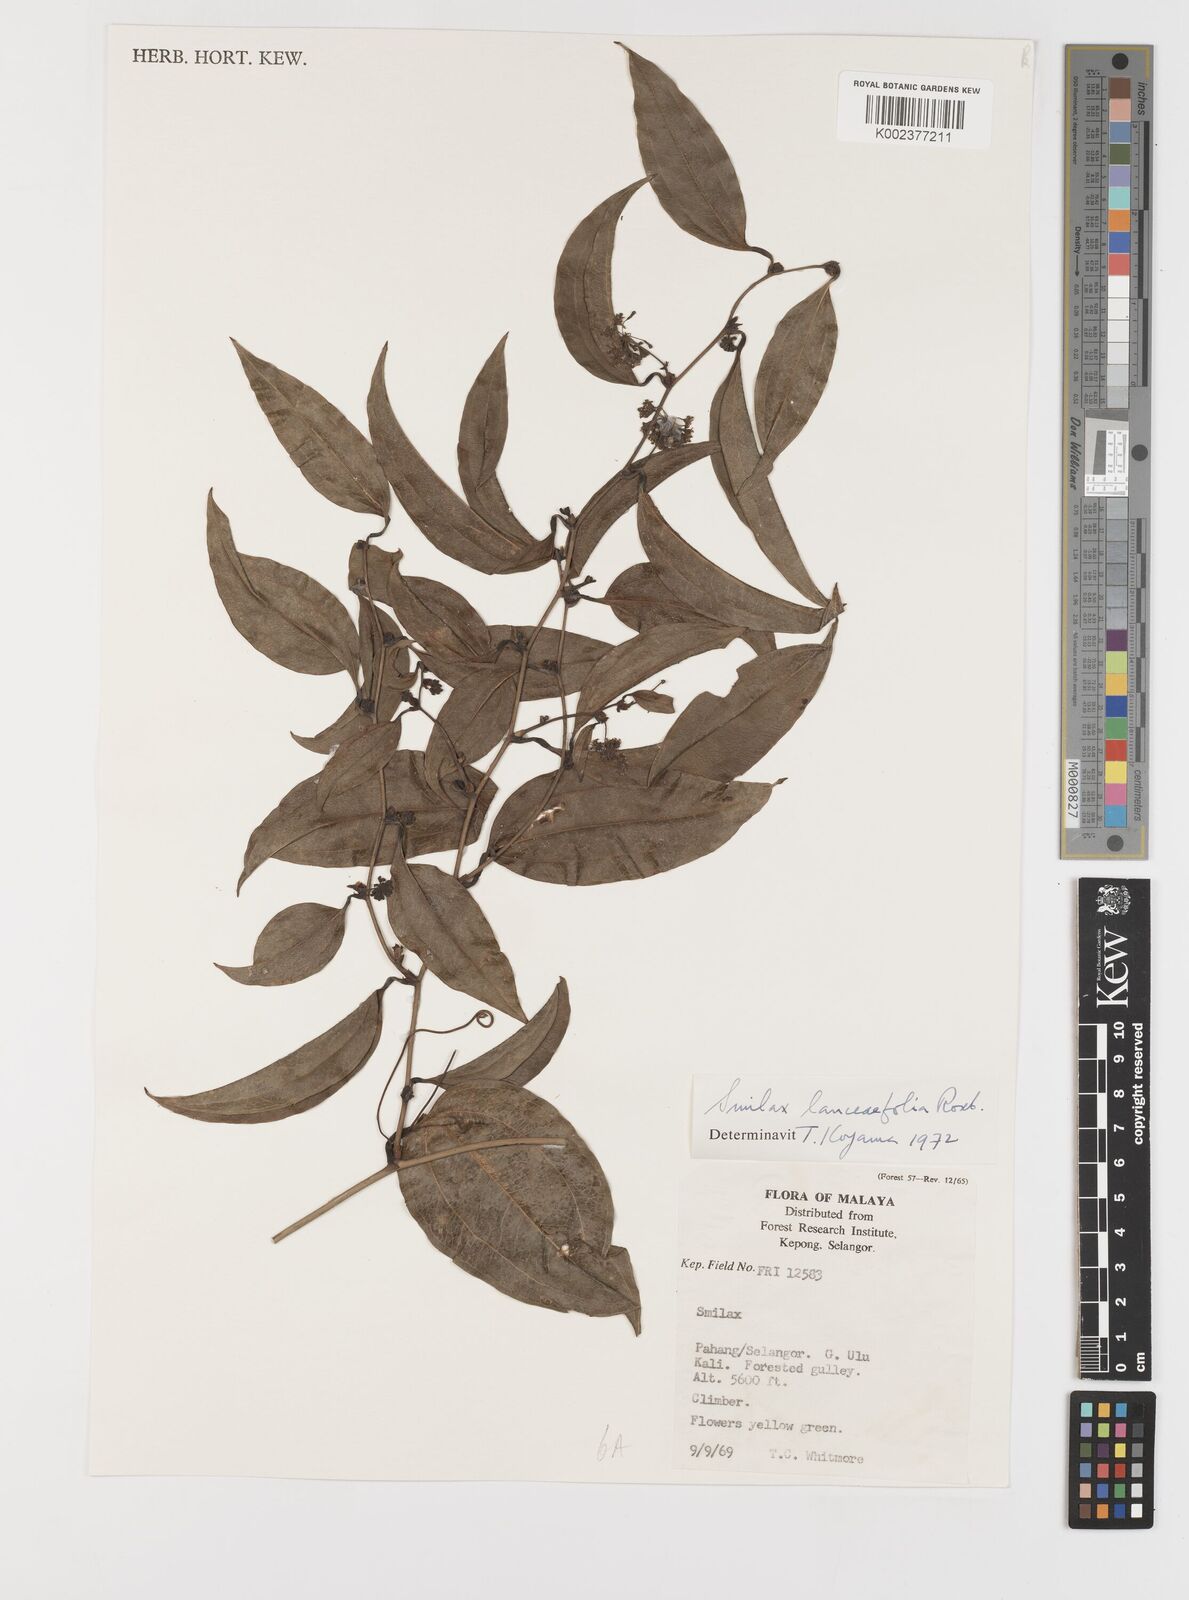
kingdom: Plantae
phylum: Tracheophyta
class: Liliopsida
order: Liliales
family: Smilacaceae
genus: Smilax
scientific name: Smilax lanceifolia
